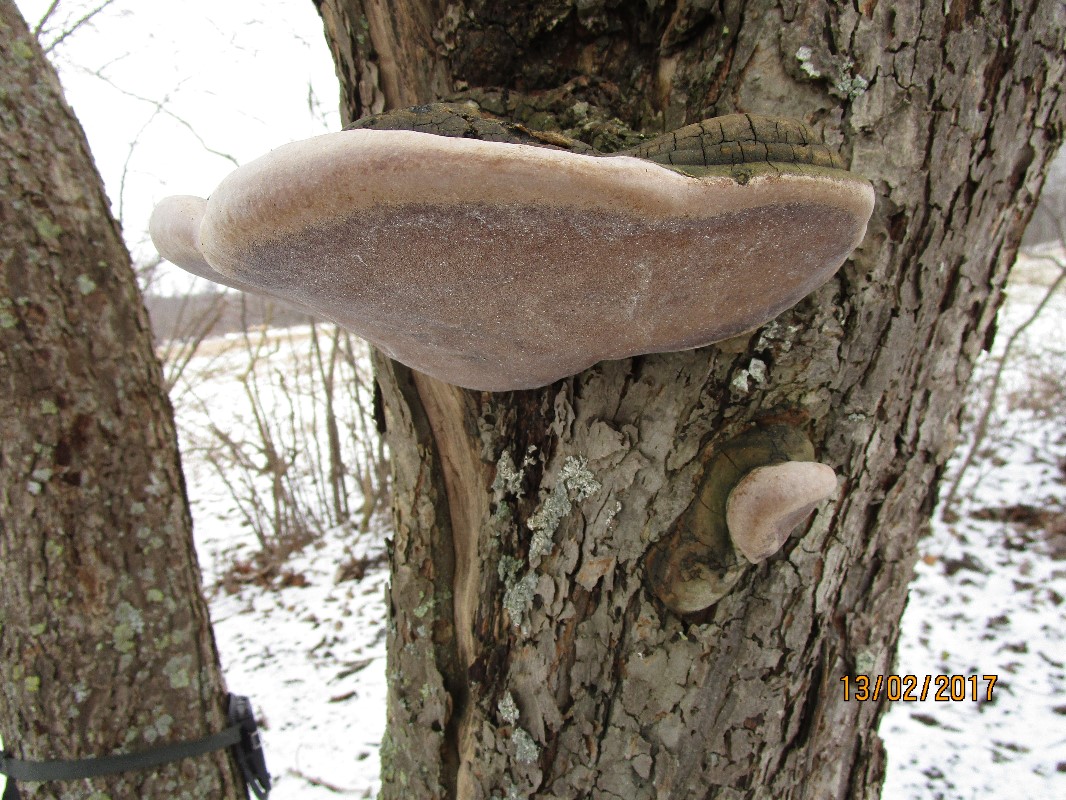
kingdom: Fungi
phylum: Basidiomycota
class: Agaricomycetes
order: Hymenochaetales
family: Hymenochaetaceae
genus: Phellinus
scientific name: Phellinus igniarius
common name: elle-ildporesvamp
